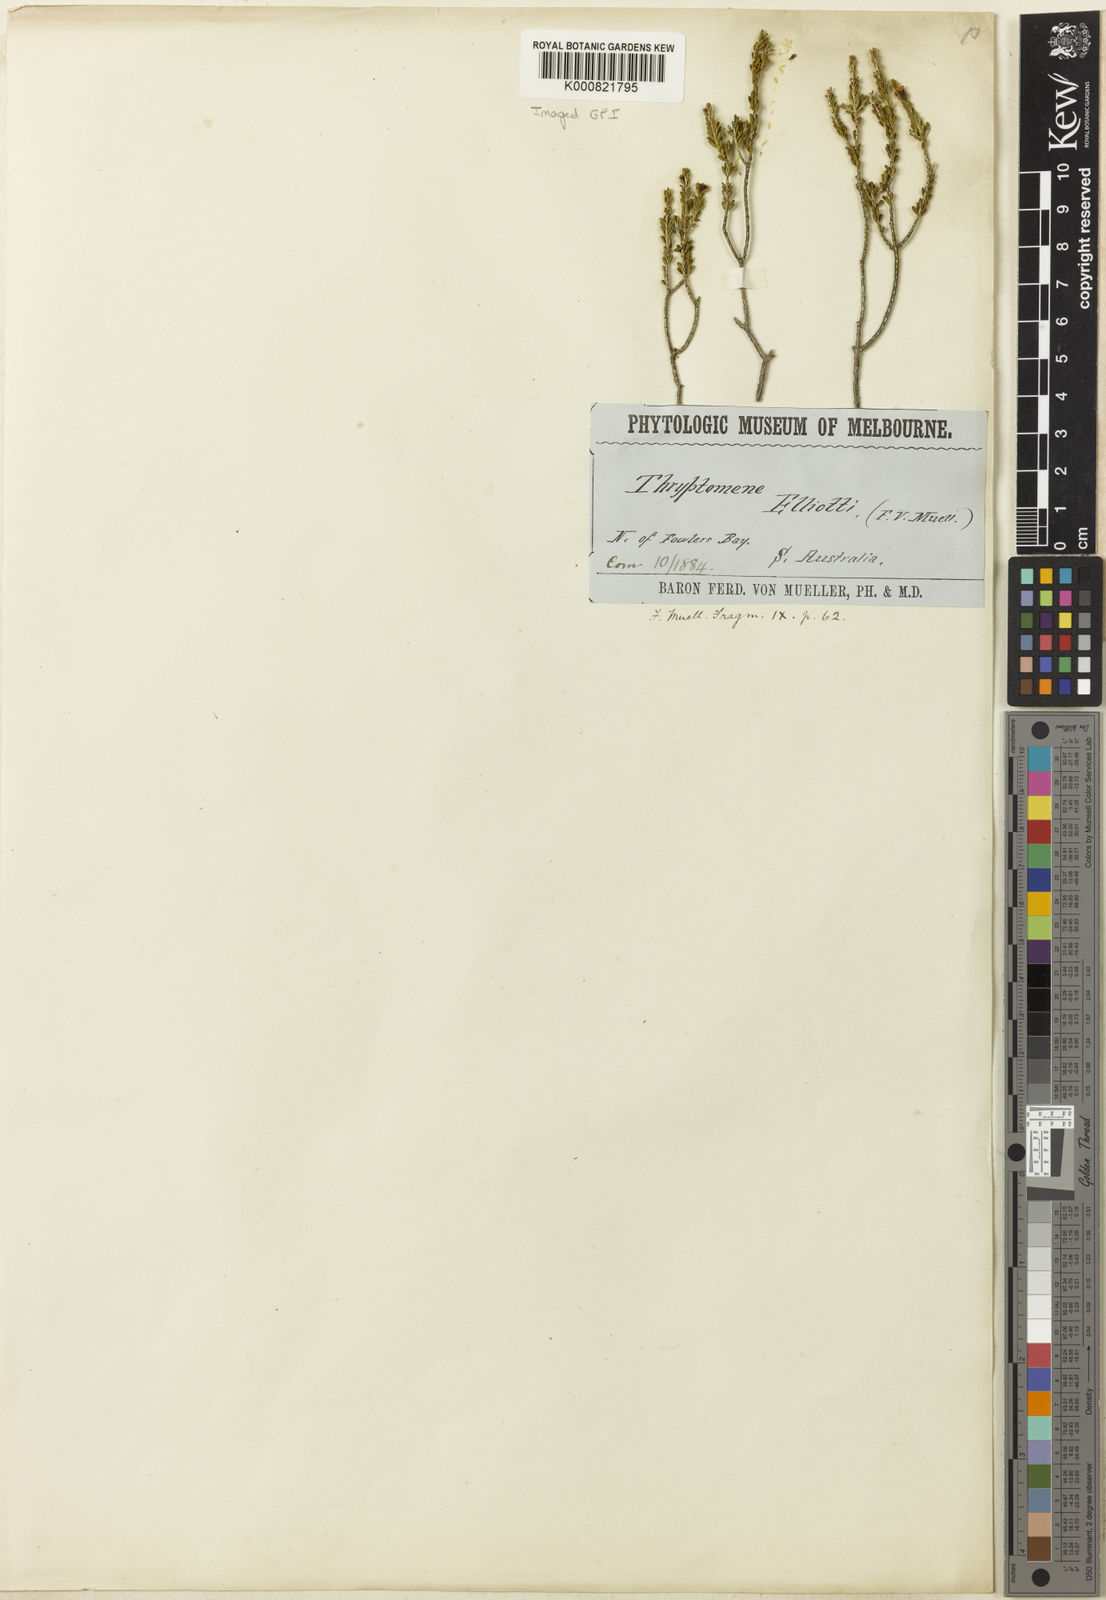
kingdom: Plantae
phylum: Tracheophyta
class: Magnoliopsida
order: Myrtales
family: Myrtaceae
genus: Thryptomene
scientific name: Thryptomene elliottii
